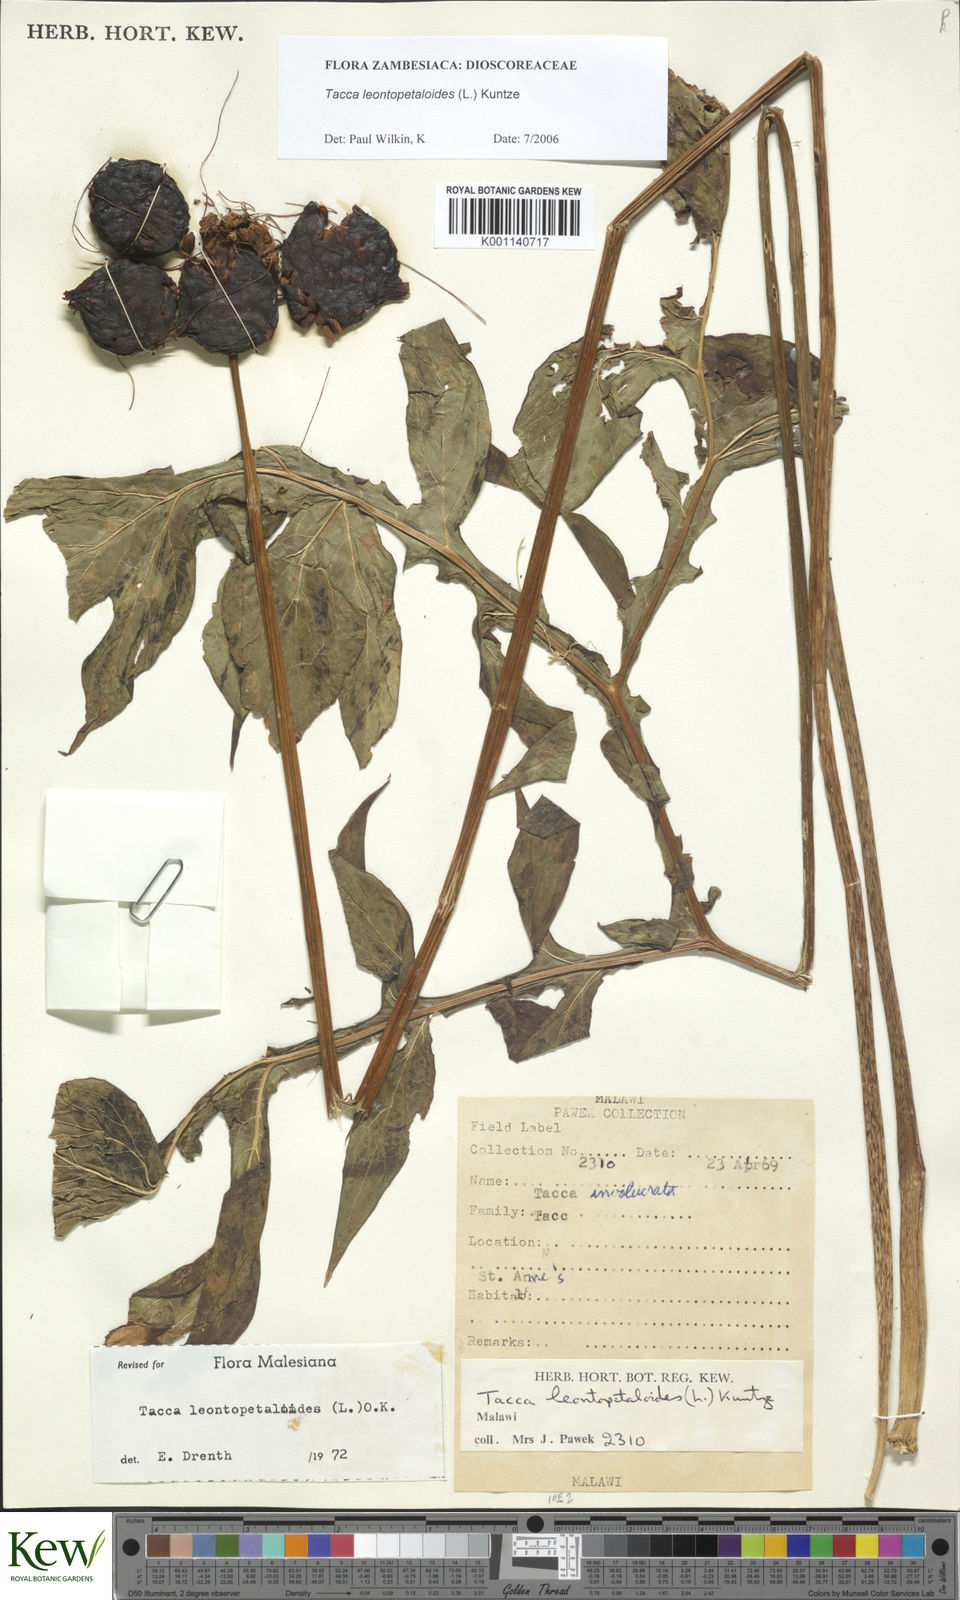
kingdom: Plantae
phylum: Tracheophyta
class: Liliopsida
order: Dioscoreales
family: Dioscoreaceae
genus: Tacca
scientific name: Tacca leontopetaloides
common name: Arrowroot
